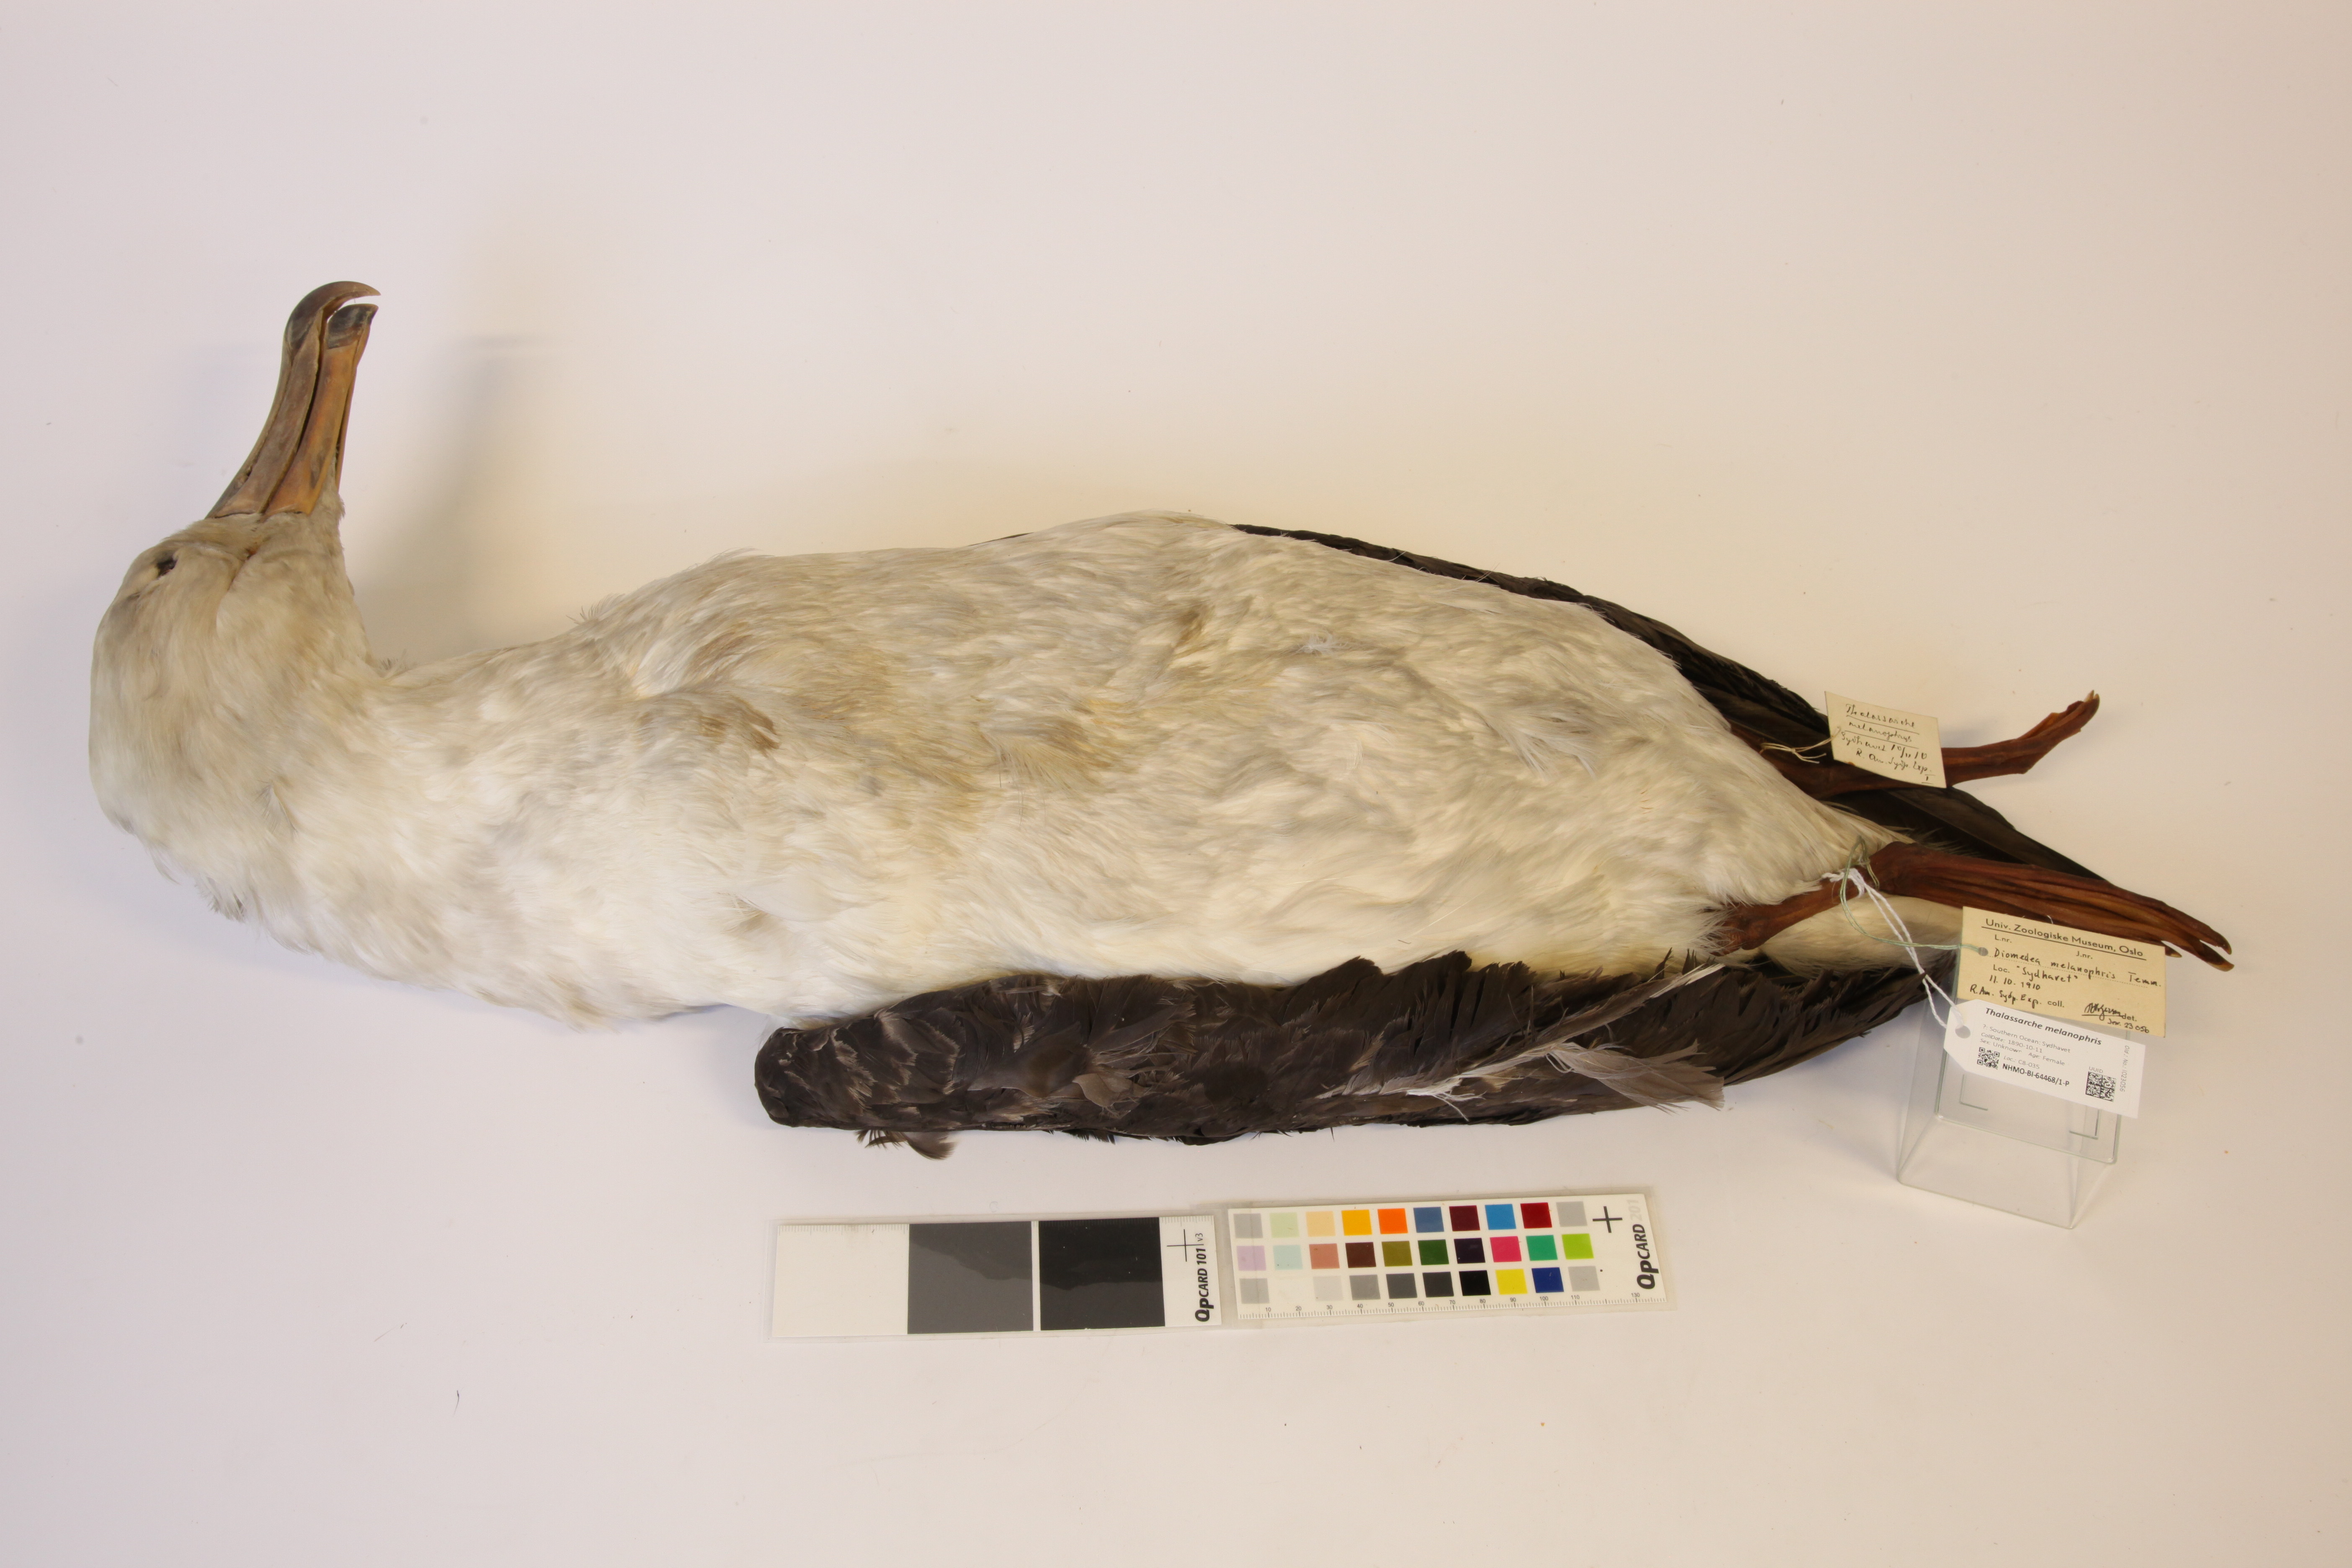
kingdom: Animalia
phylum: Chordata
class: Aves
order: Procellariiformes
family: Diomedeidae
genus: Thalassarche
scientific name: Thalassarche melanophris
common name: Black-browed albatross
